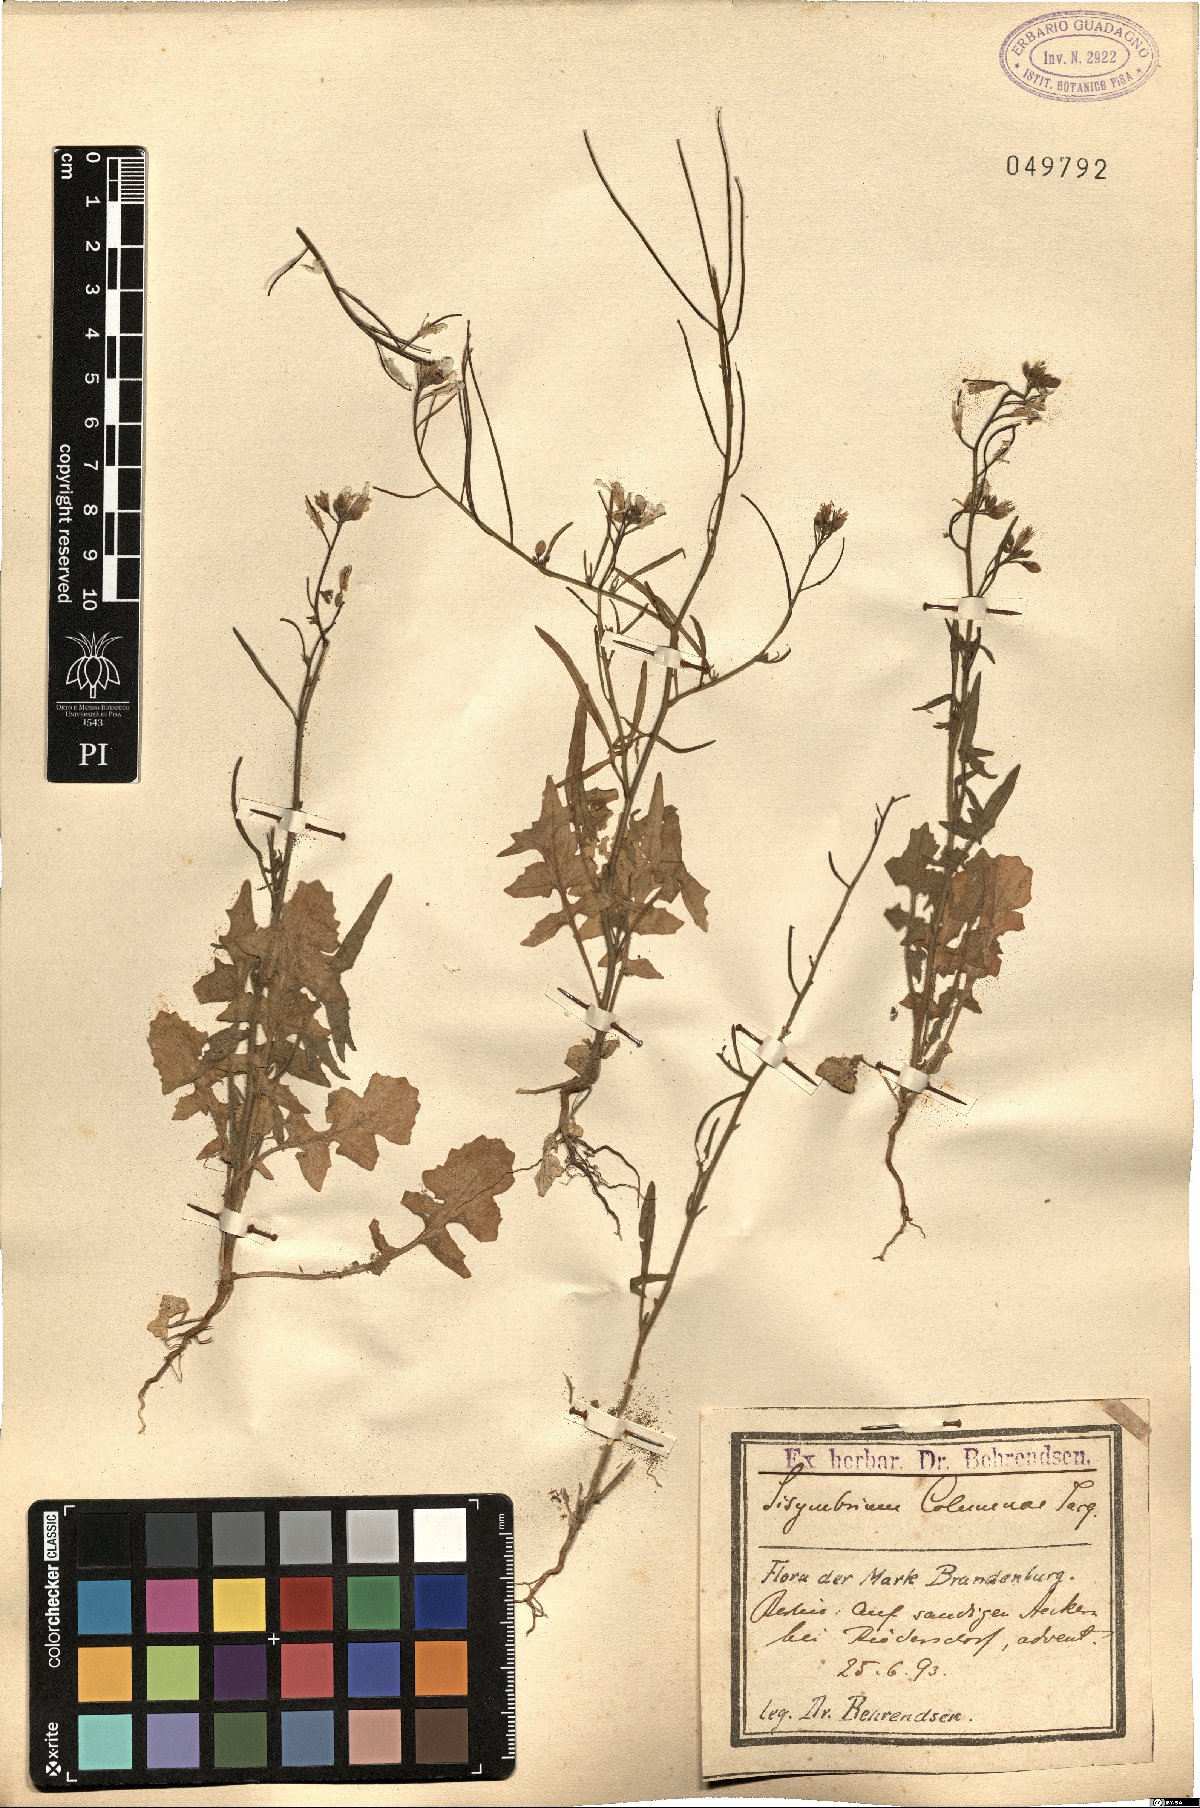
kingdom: Plantae
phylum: Tracheophyta
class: Magnoliopsida
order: Brassicales
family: Brassicaceae
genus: Sisymbrium
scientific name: Sisymbrium orientale
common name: Eastern rocket
